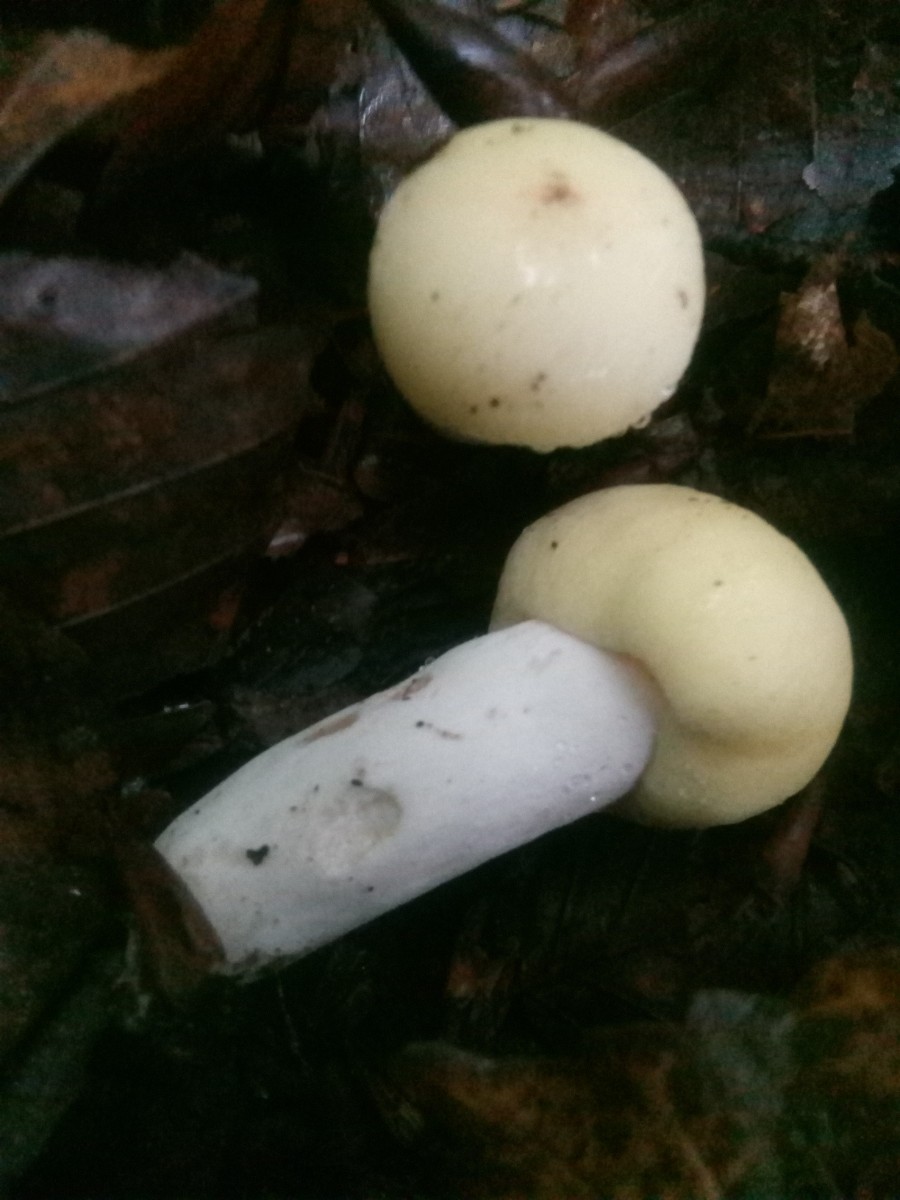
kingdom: Fungi
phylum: Basidiomycota
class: Agaricomycetes
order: Russulales
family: Russulaceae
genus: Russula
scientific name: Russula violeipes
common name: ferskengul skørhat
